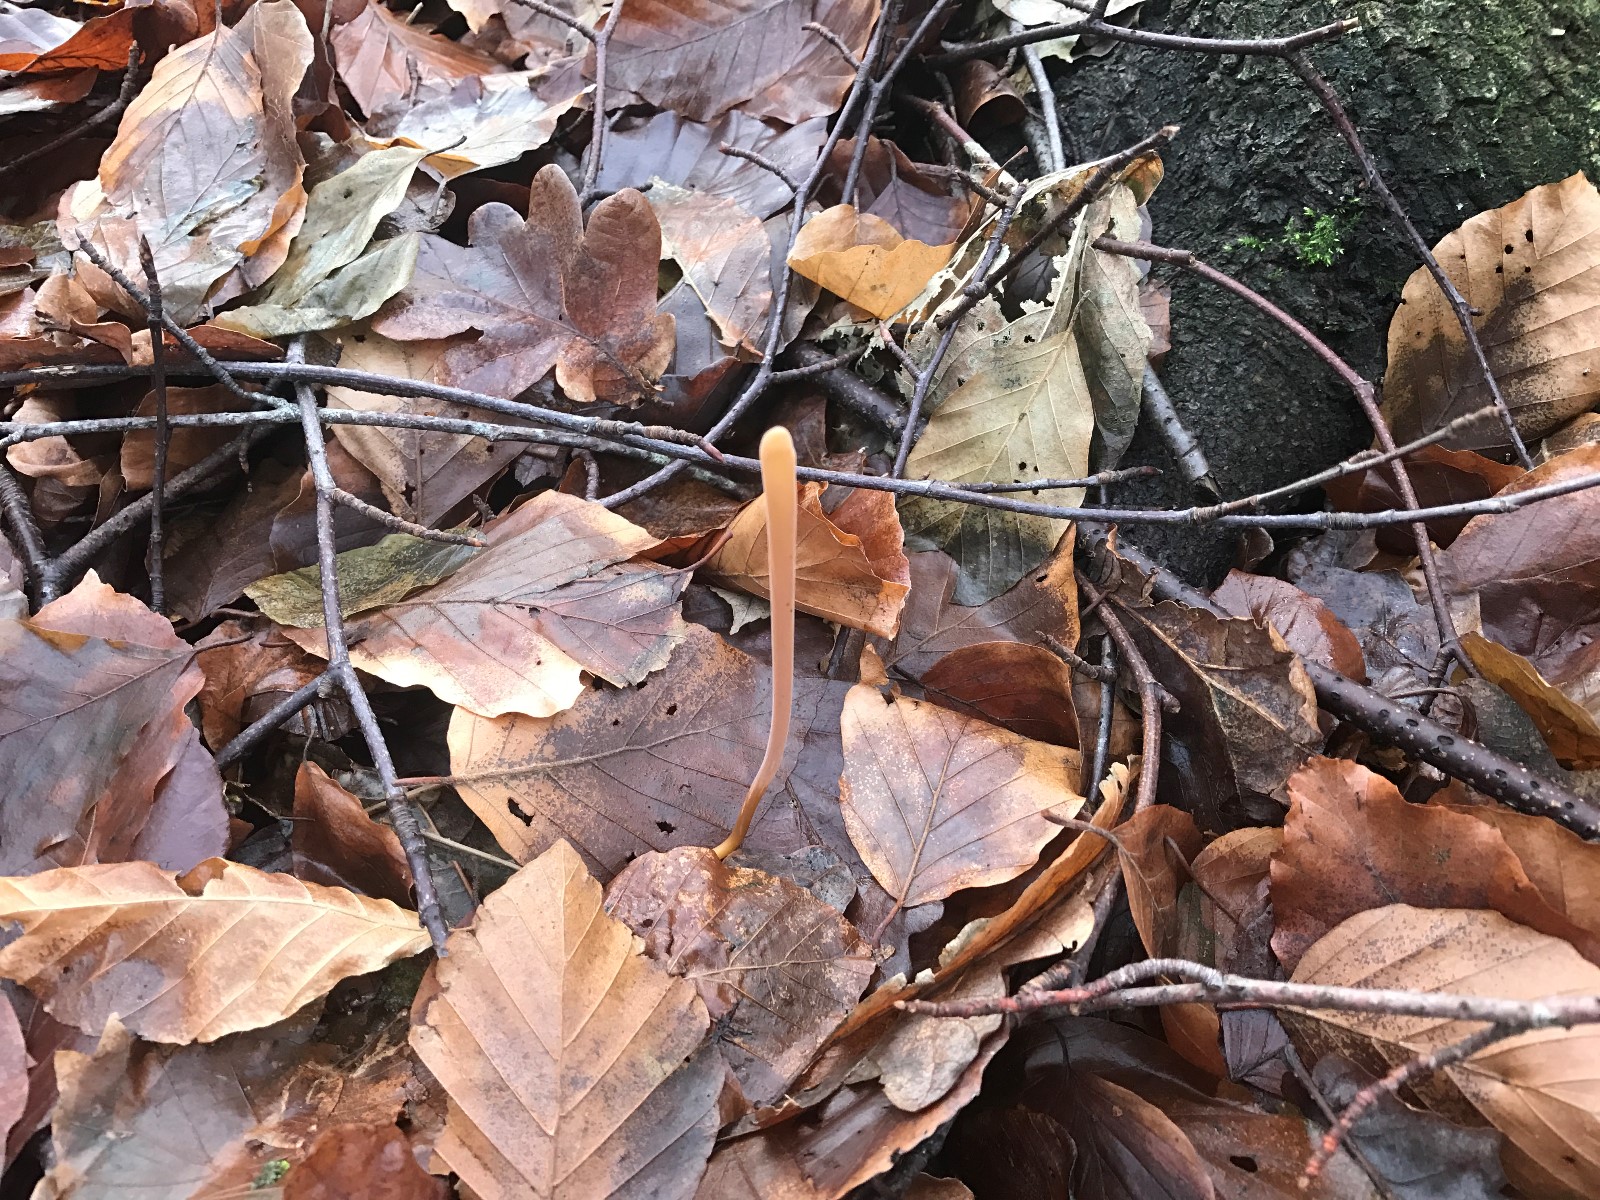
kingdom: Fungi
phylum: Basidiomycota
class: Agaricomycetes
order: Agaricales
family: Typhulaceae
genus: Typhula
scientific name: Typhula fistulosa
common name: pibet rørkølle
